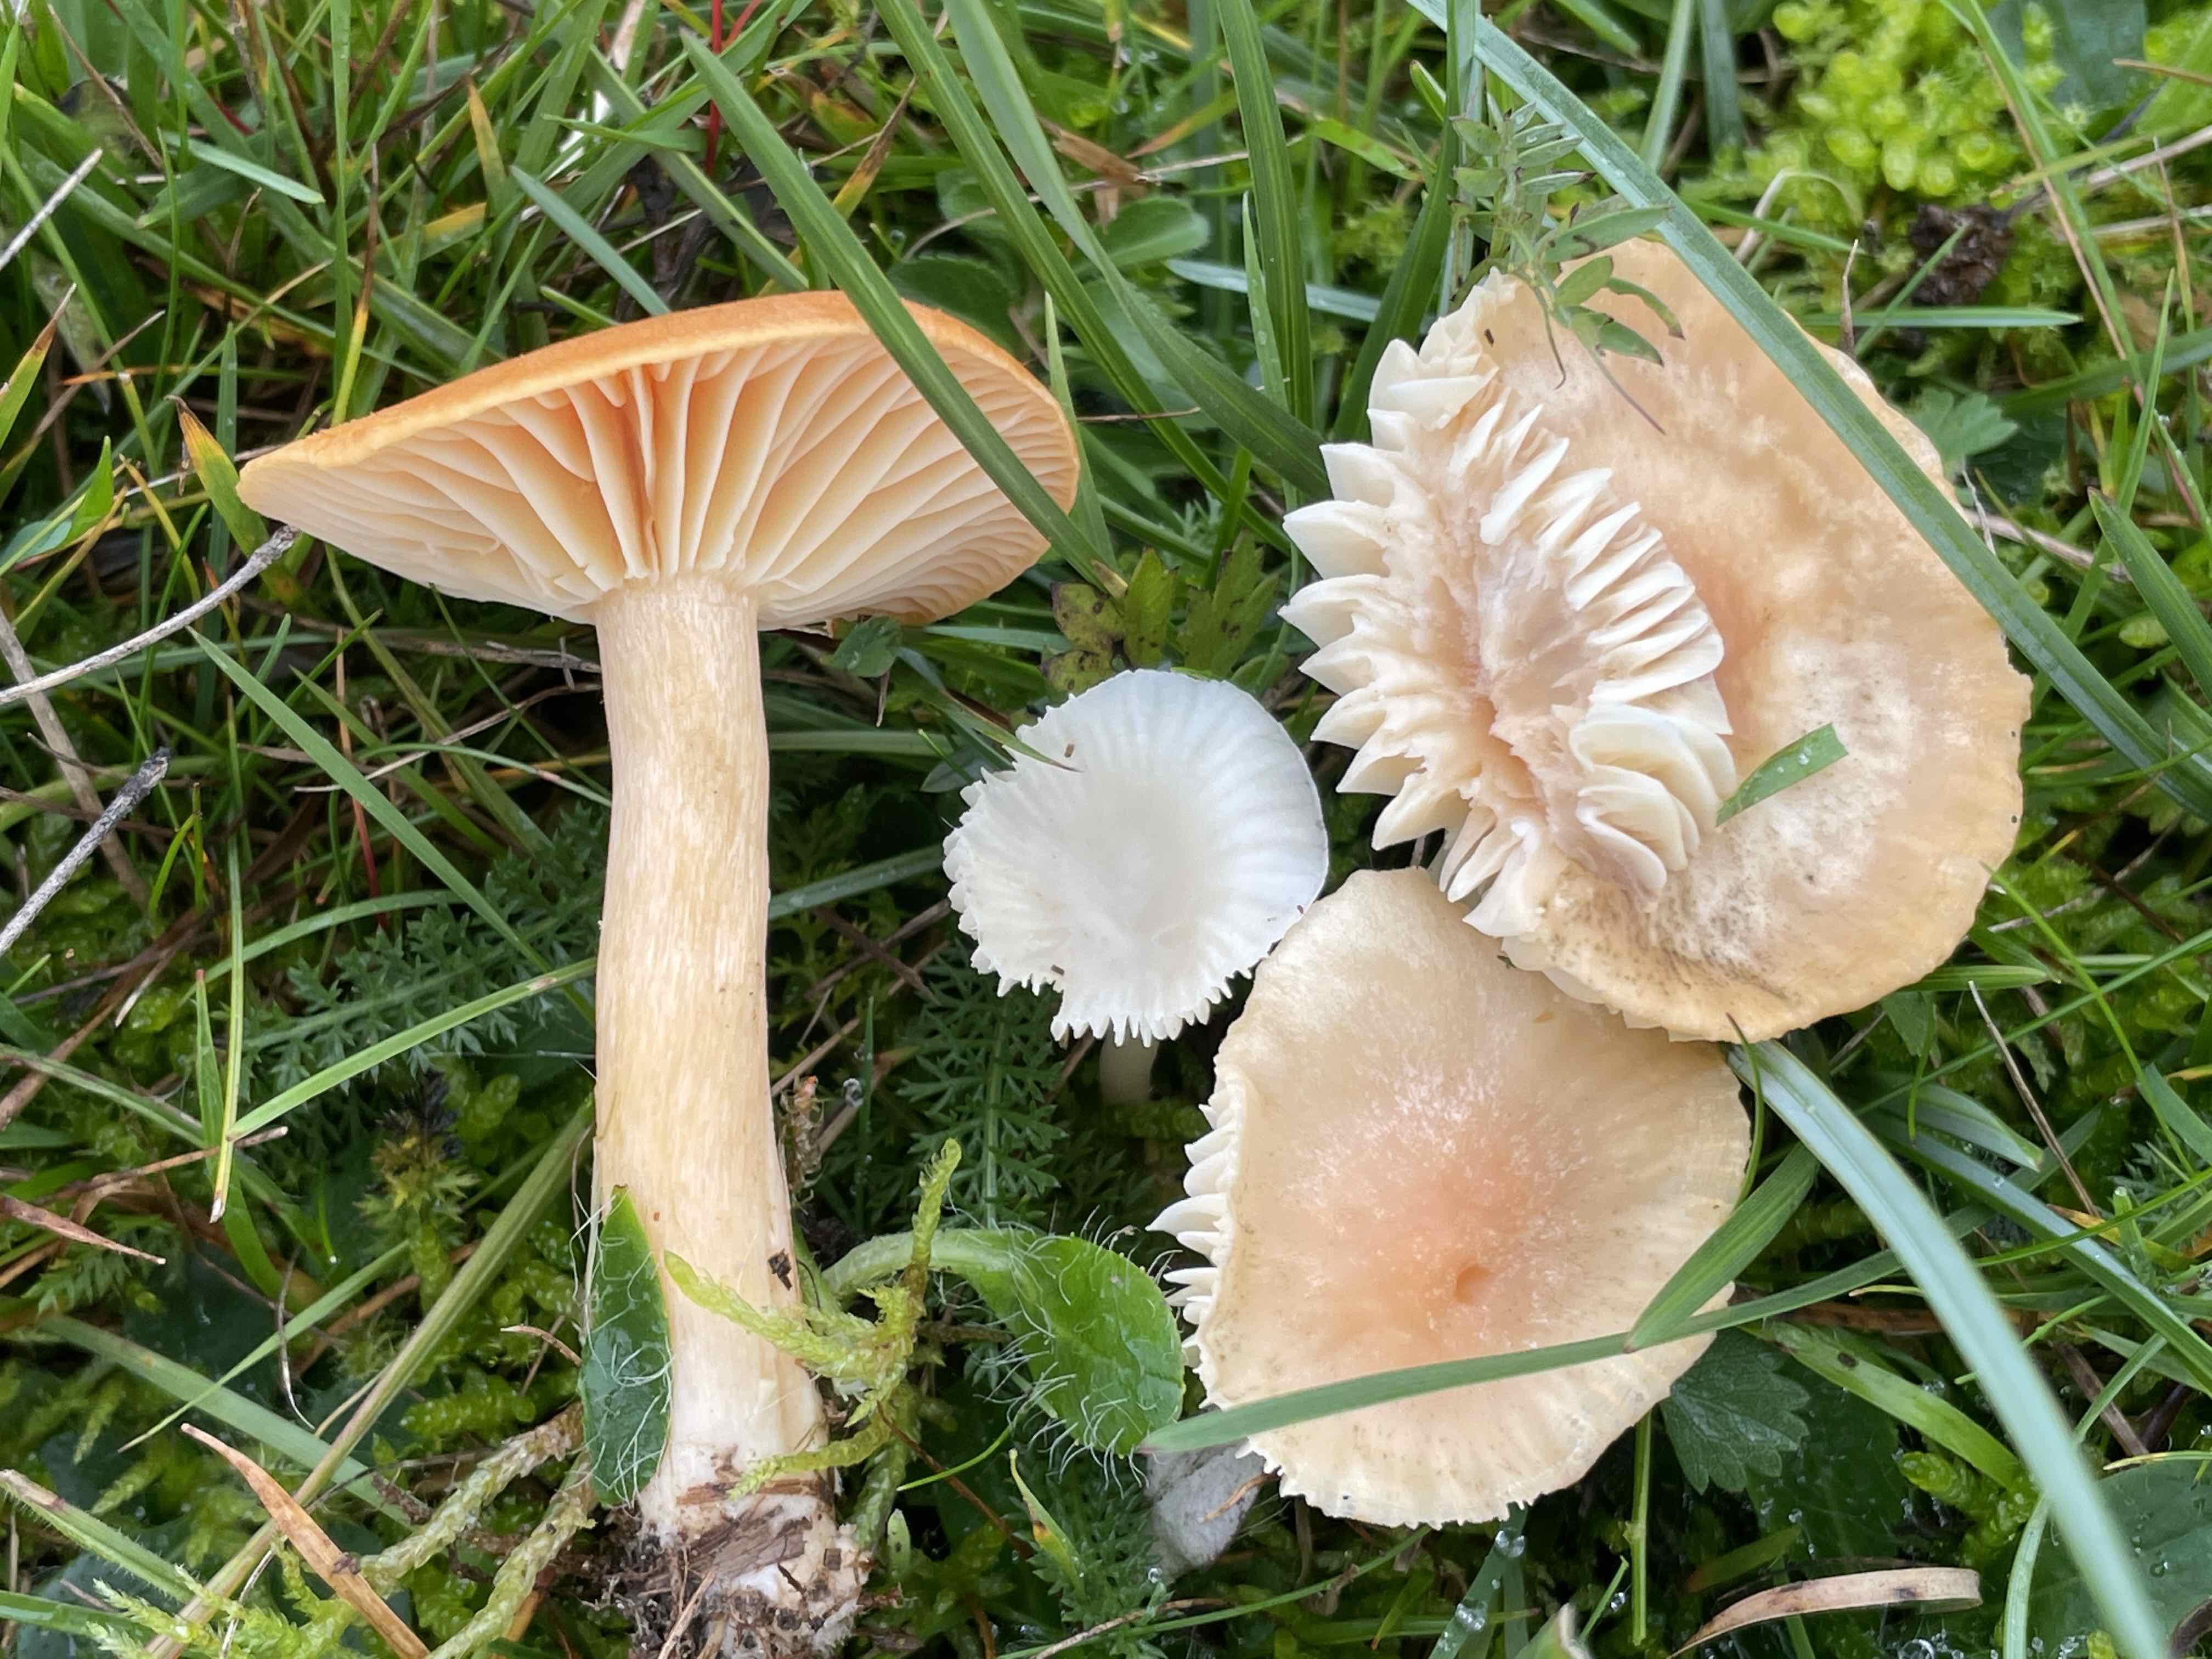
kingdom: Fungi
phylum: Basidiomycota
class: Agaricomycetes
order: Agaricales
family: Hygrophoraceae
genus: Cuphophyllus
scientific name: Cuphophyllus pratensis
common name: eng-vokshat
